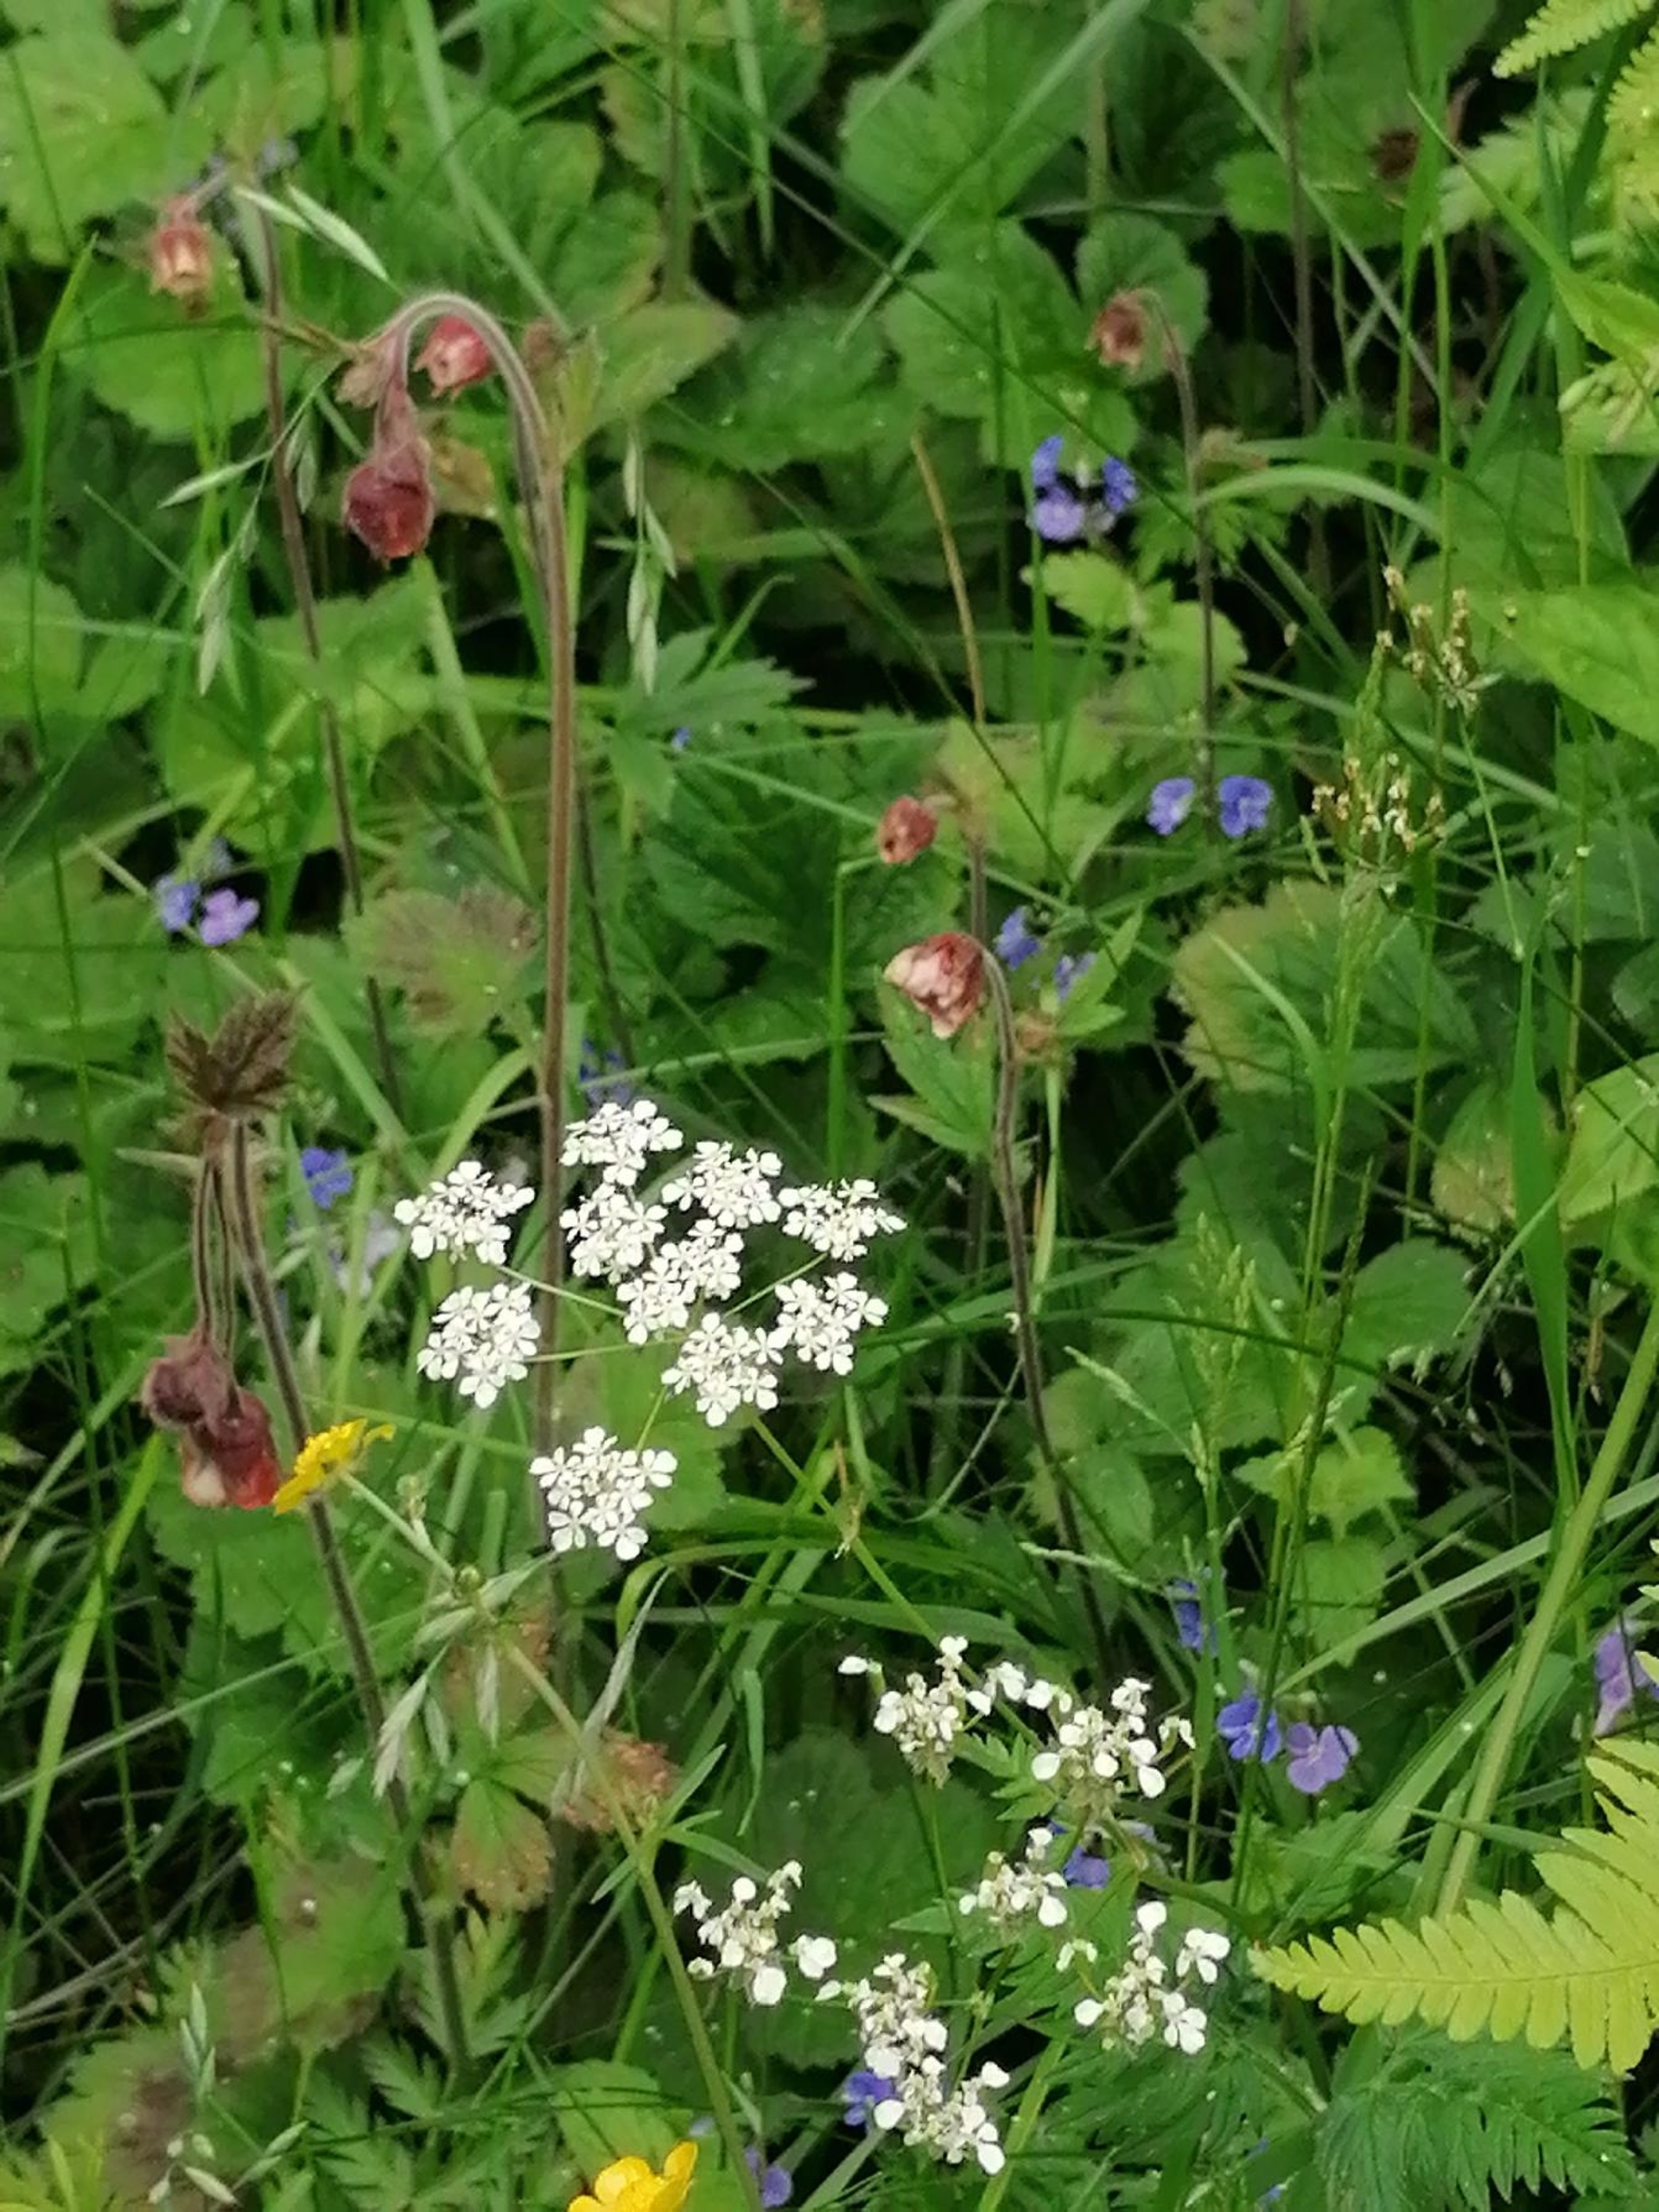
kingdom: Plantae
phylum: Tracheophyta
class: Magnoliopsida
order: Rosales
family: Rosaceae
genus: Geum
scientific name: Geum rivale
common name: Eng-nellikerod
